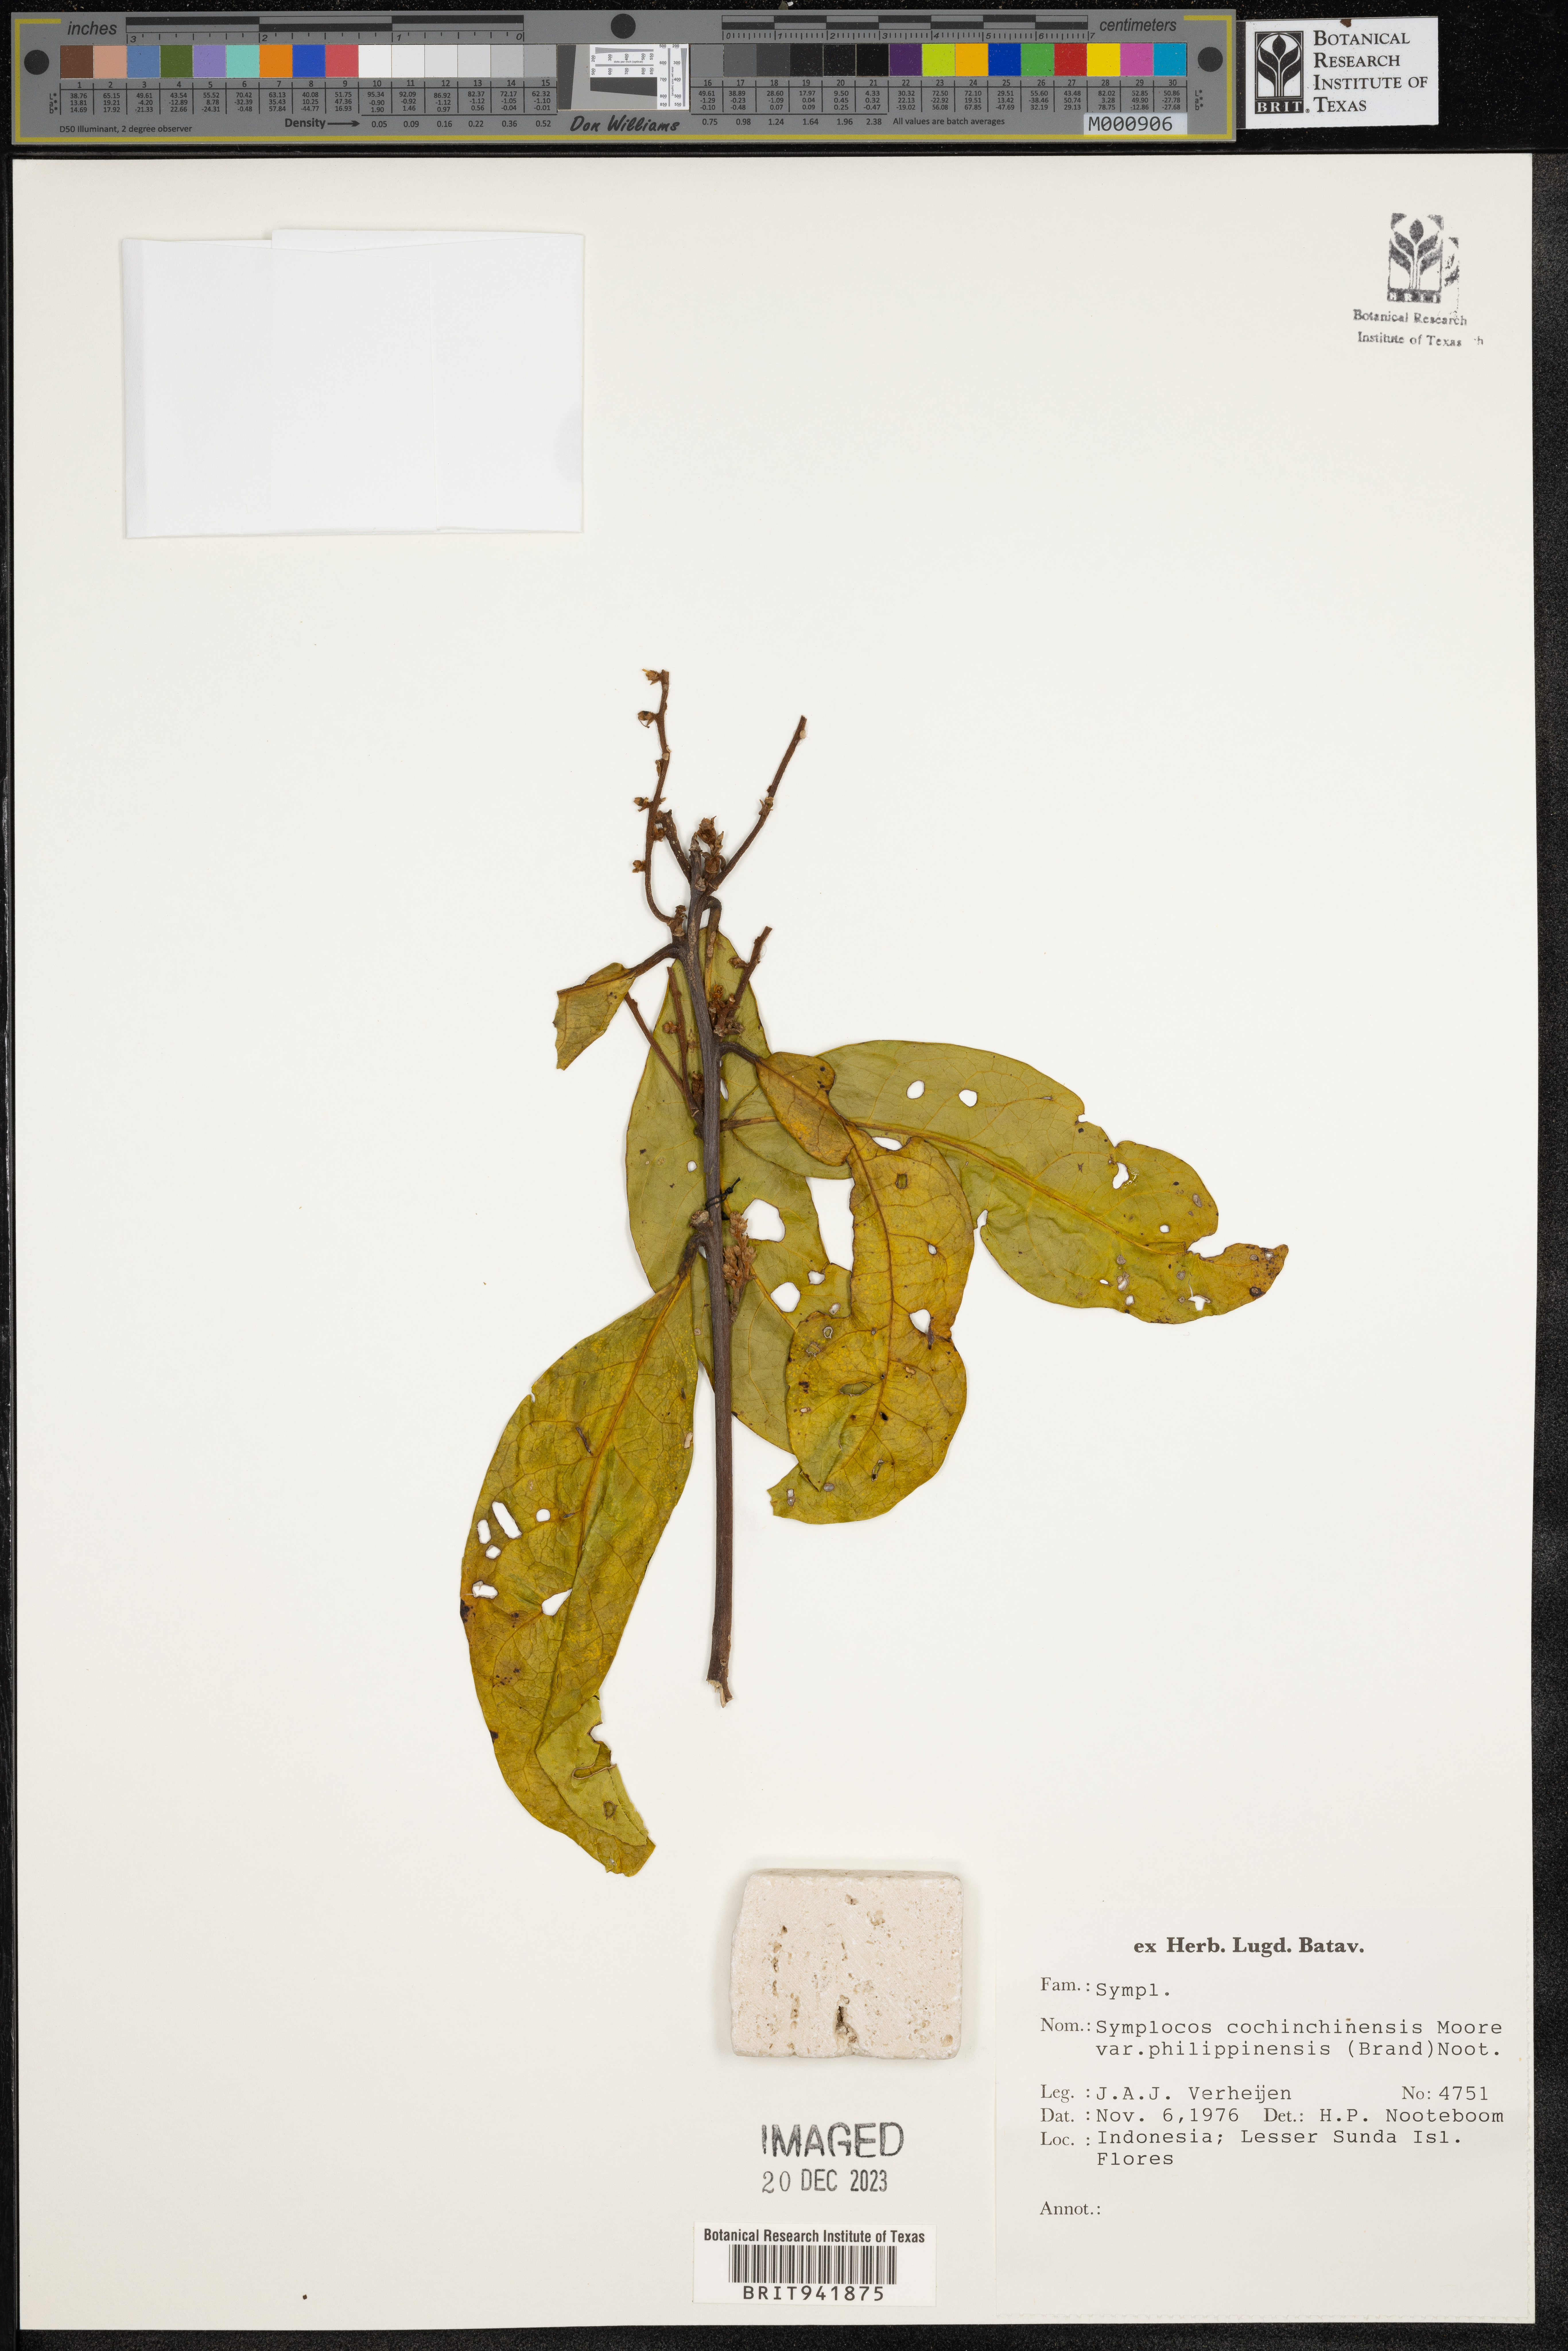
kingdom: Plantae
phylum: Tracheophyta
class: Magnoliopsida
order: Ericales
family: Symplocaceae
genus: Symplocos
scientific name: Symplocos cochinchinensis
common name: Buff hazelwood
